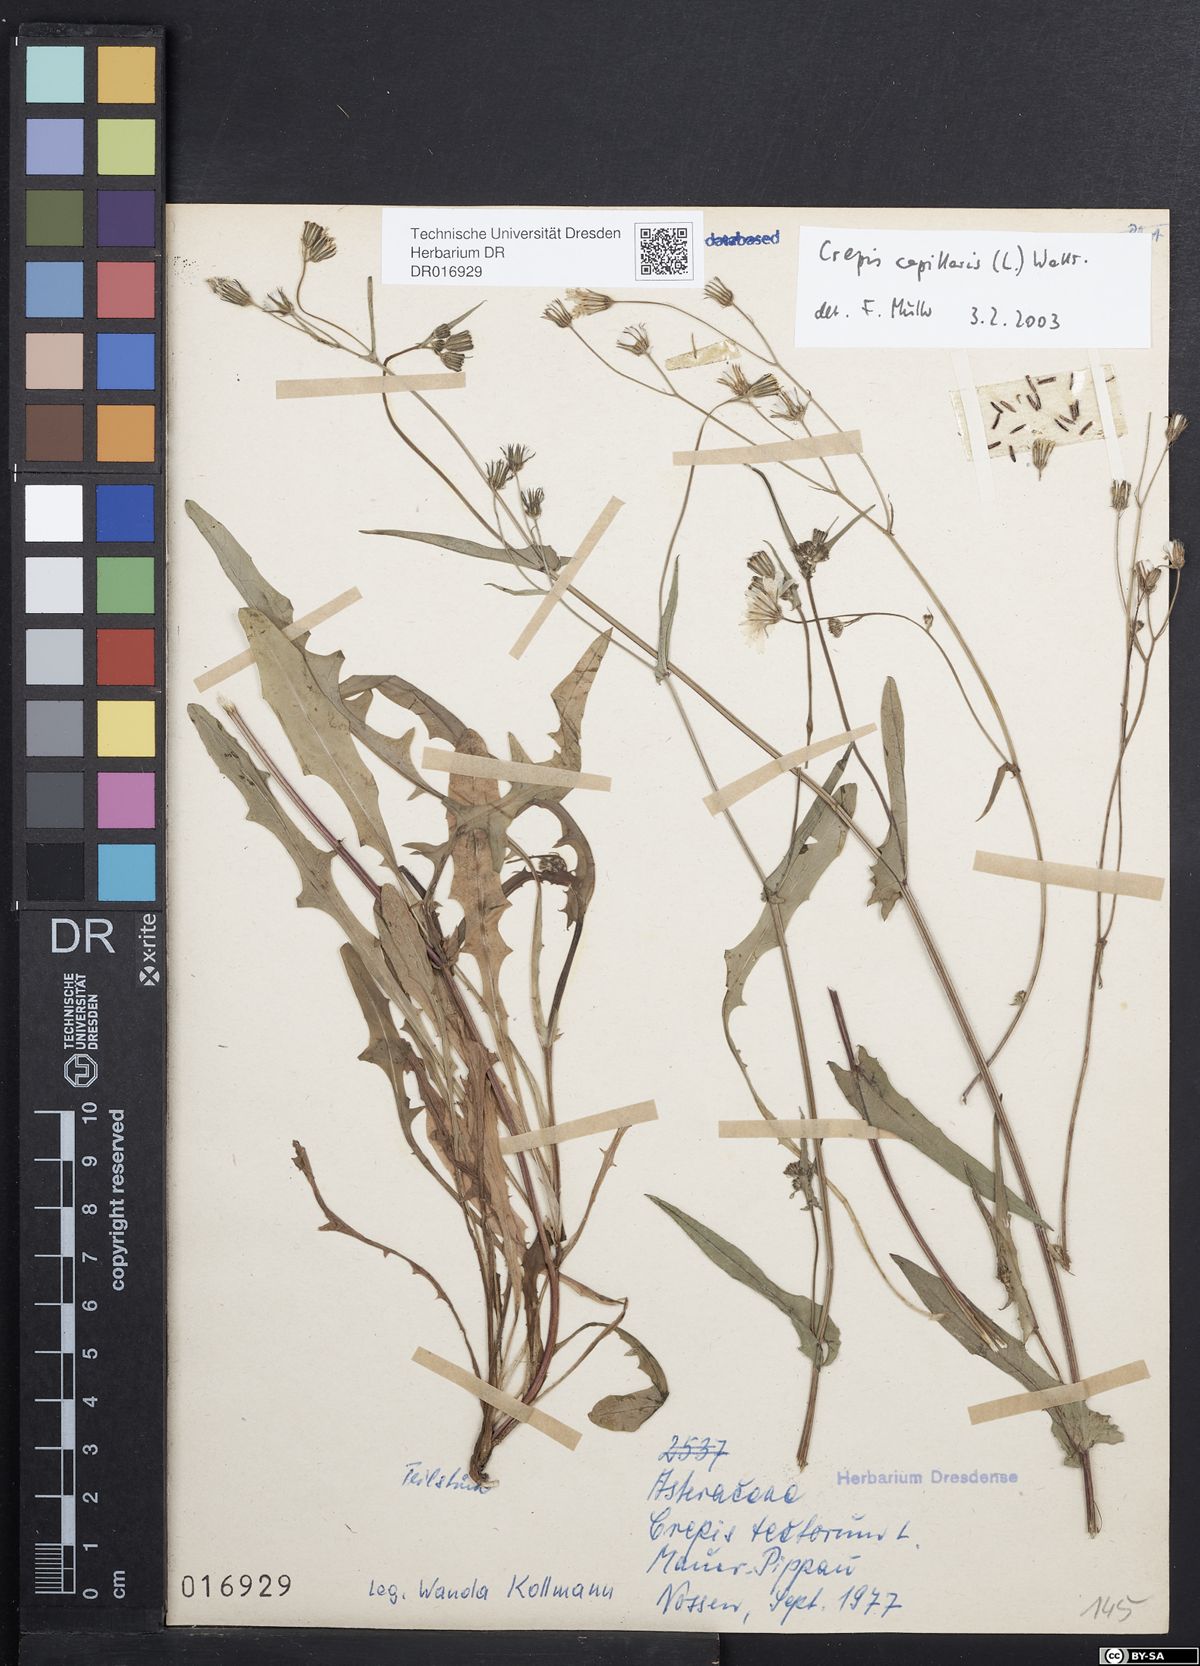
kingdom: Plantae
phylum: Tracheophyta
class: Magnoliopsida
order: Asterales
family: Asteraceae
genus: Crepis
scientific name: Crepis capillaris
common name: Smooth hawksbeard
